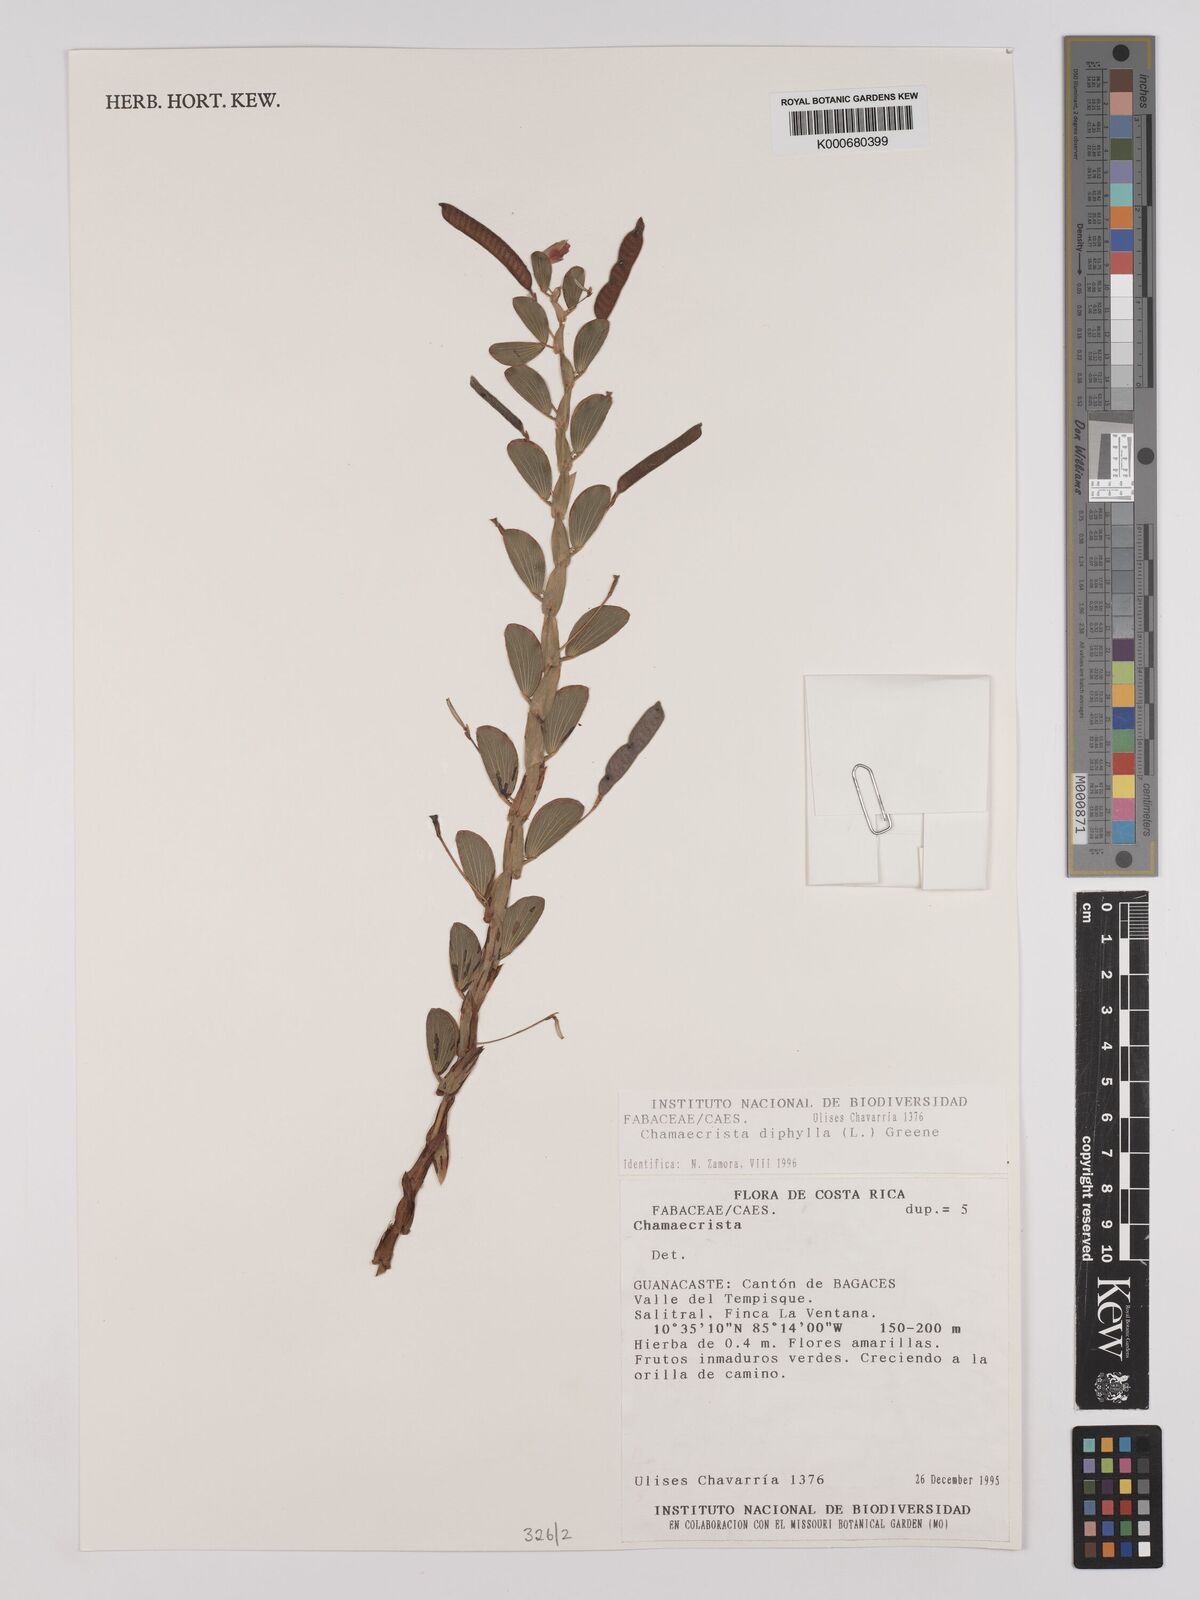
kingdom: Plantae
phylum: Tracheophyta
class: Magnoliopsida
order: Fabales
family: Fabaceae
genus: Chamaecrista
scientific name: Chamaecrista diphylla
